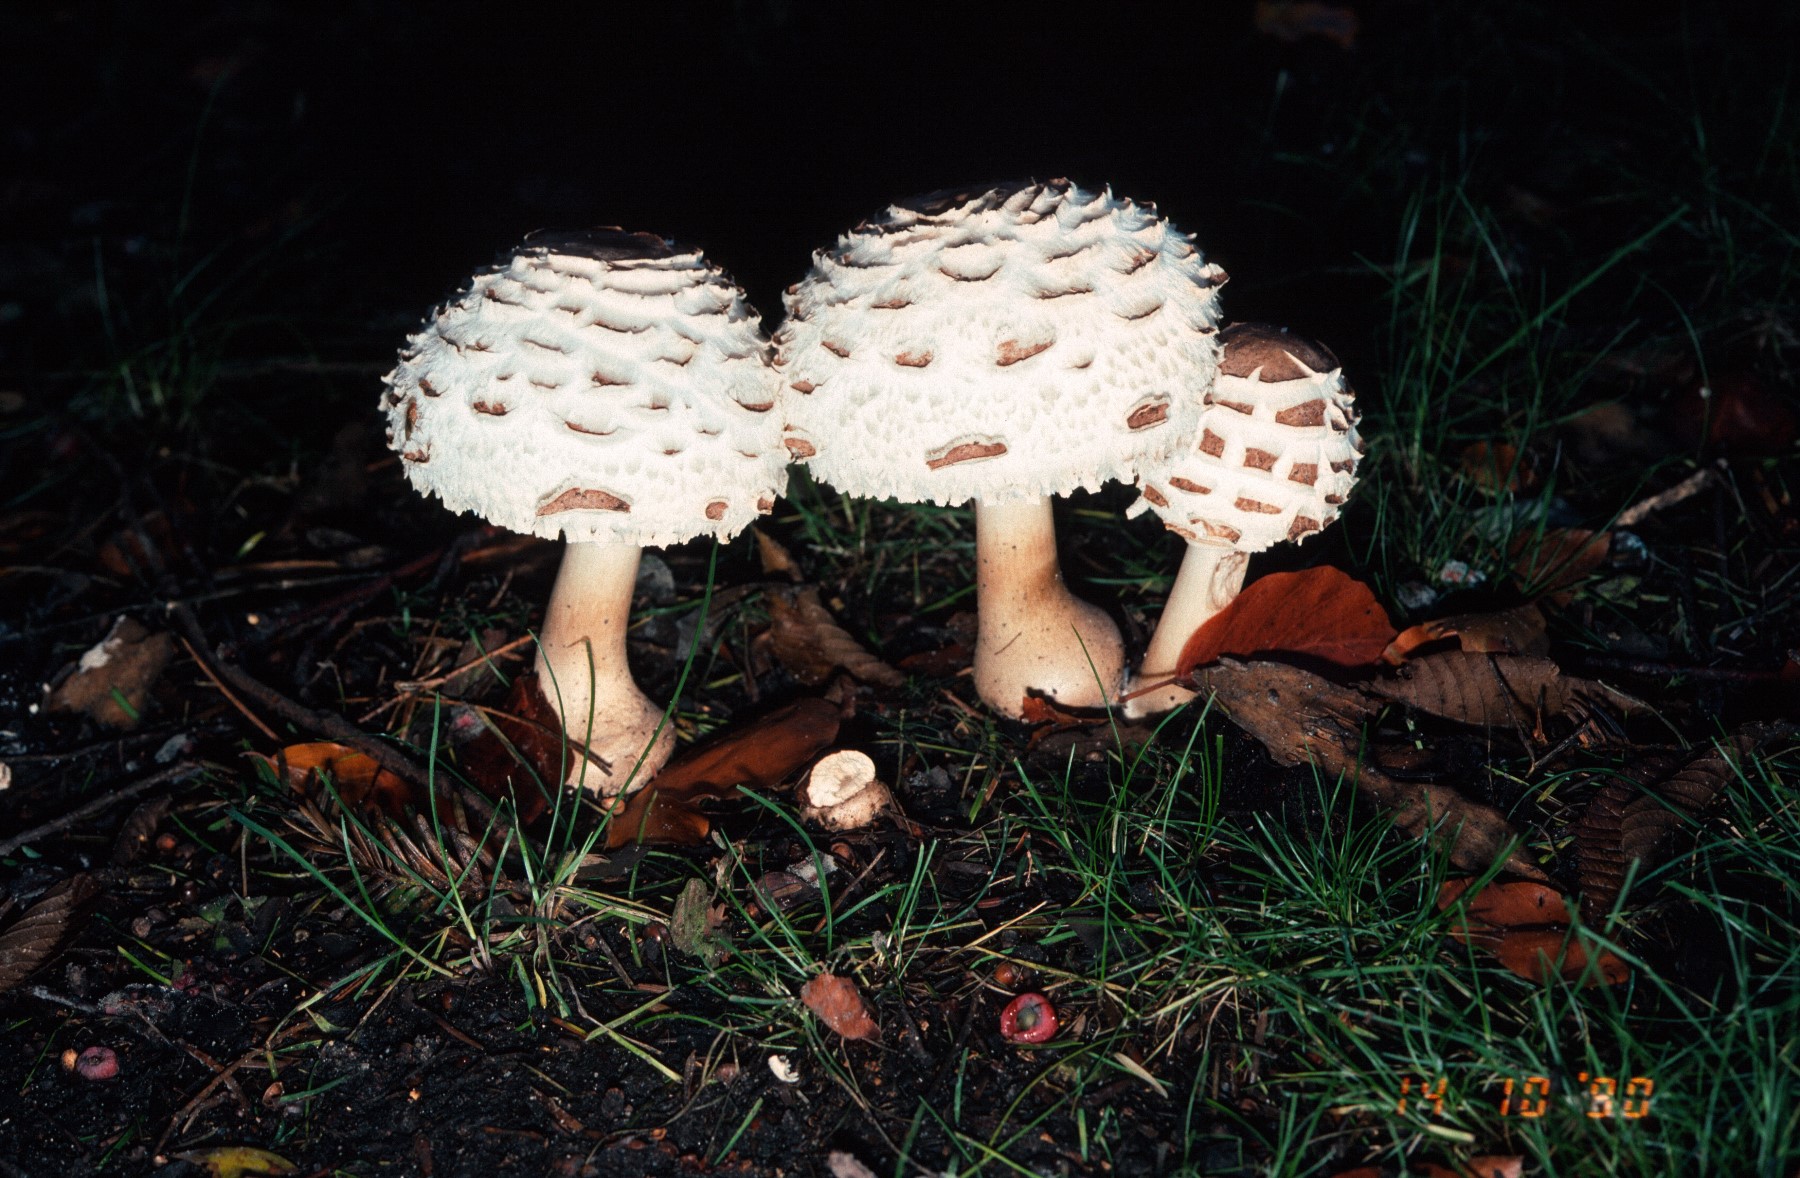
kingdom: Fungi
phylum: Basidiomycota
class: Agaricomycetes
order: Agaricales
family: Agaricaceae
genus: Chlorophyllum
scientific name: Chlorophyllum rhacodes
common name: ægte rabarberhat
